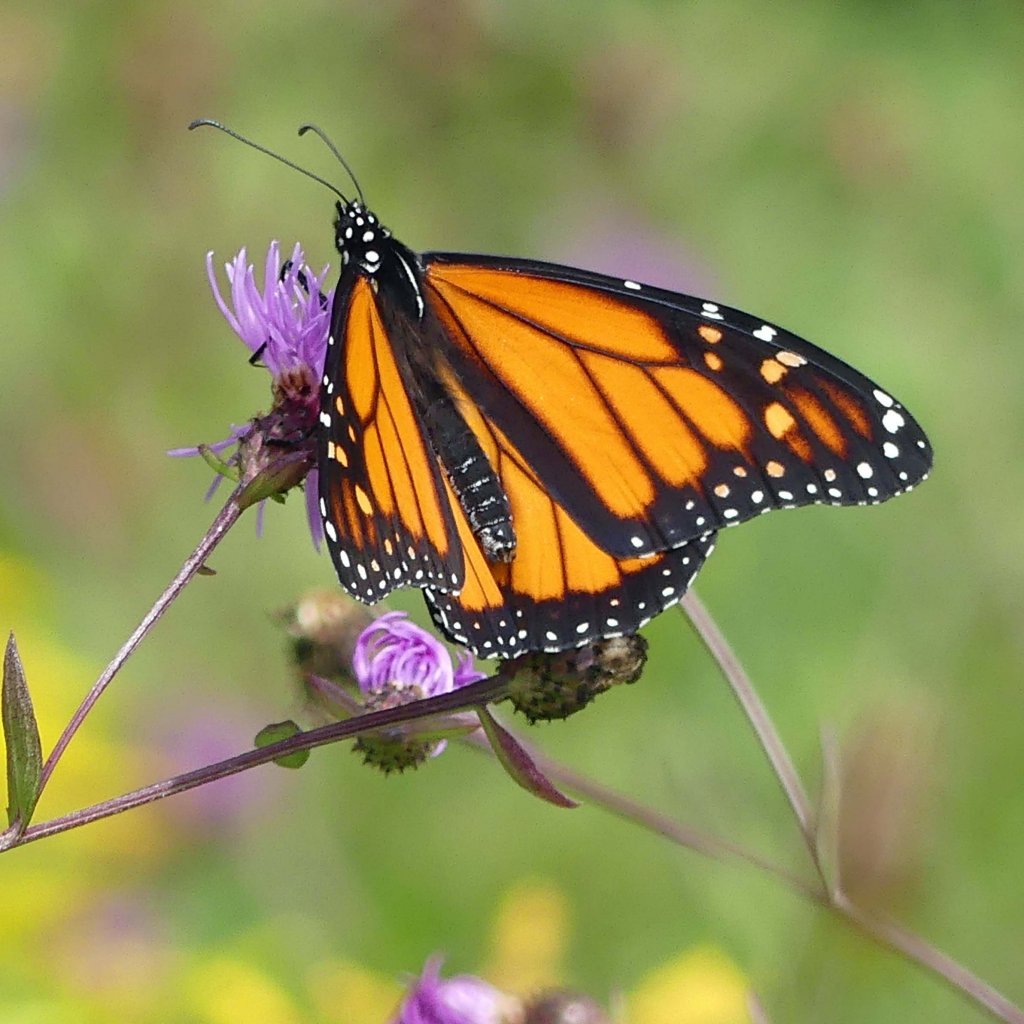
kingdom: Animalia
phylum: Arthropoda
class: Insecta
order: Lepidoptera
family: Nymphalidae
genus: Danaus
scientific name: Danaus plexippus
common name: Monarch
